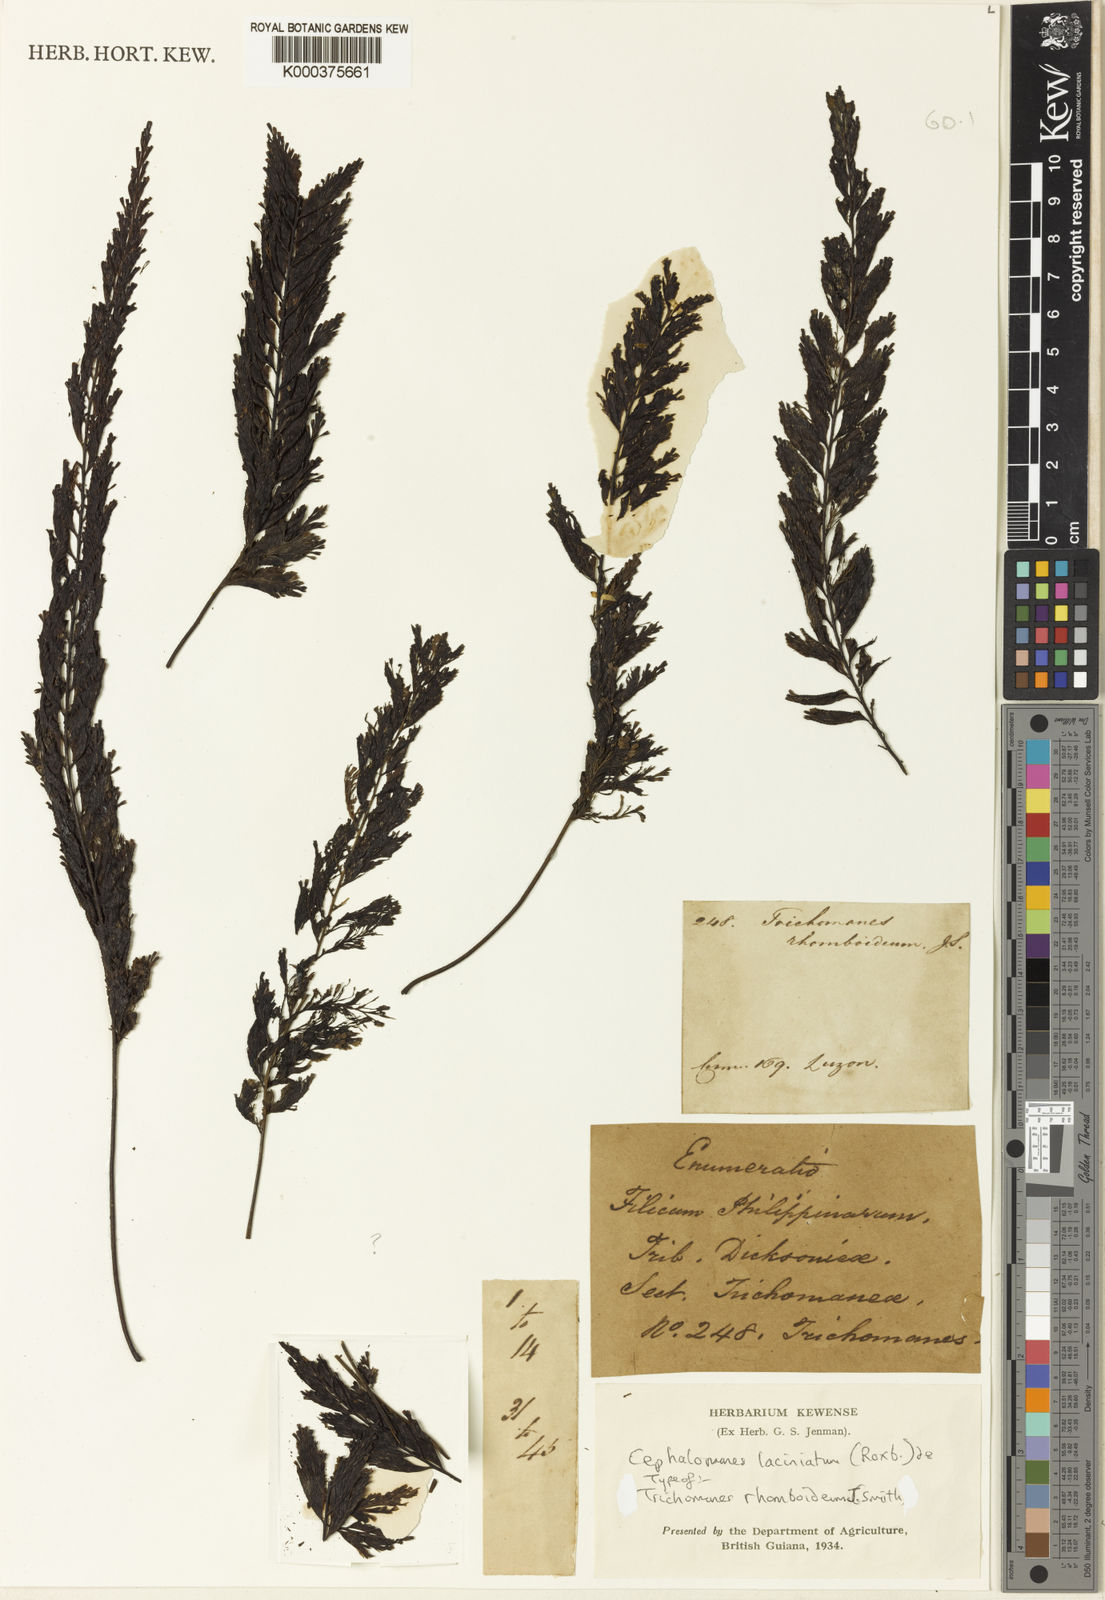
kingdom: Plantae
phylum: Tracheophyta
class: Polypodiopsida
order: Hymenophyllales
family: Hymenophyllaceae
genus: Cephalomanes
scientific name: Cephalomanes laciniatum
